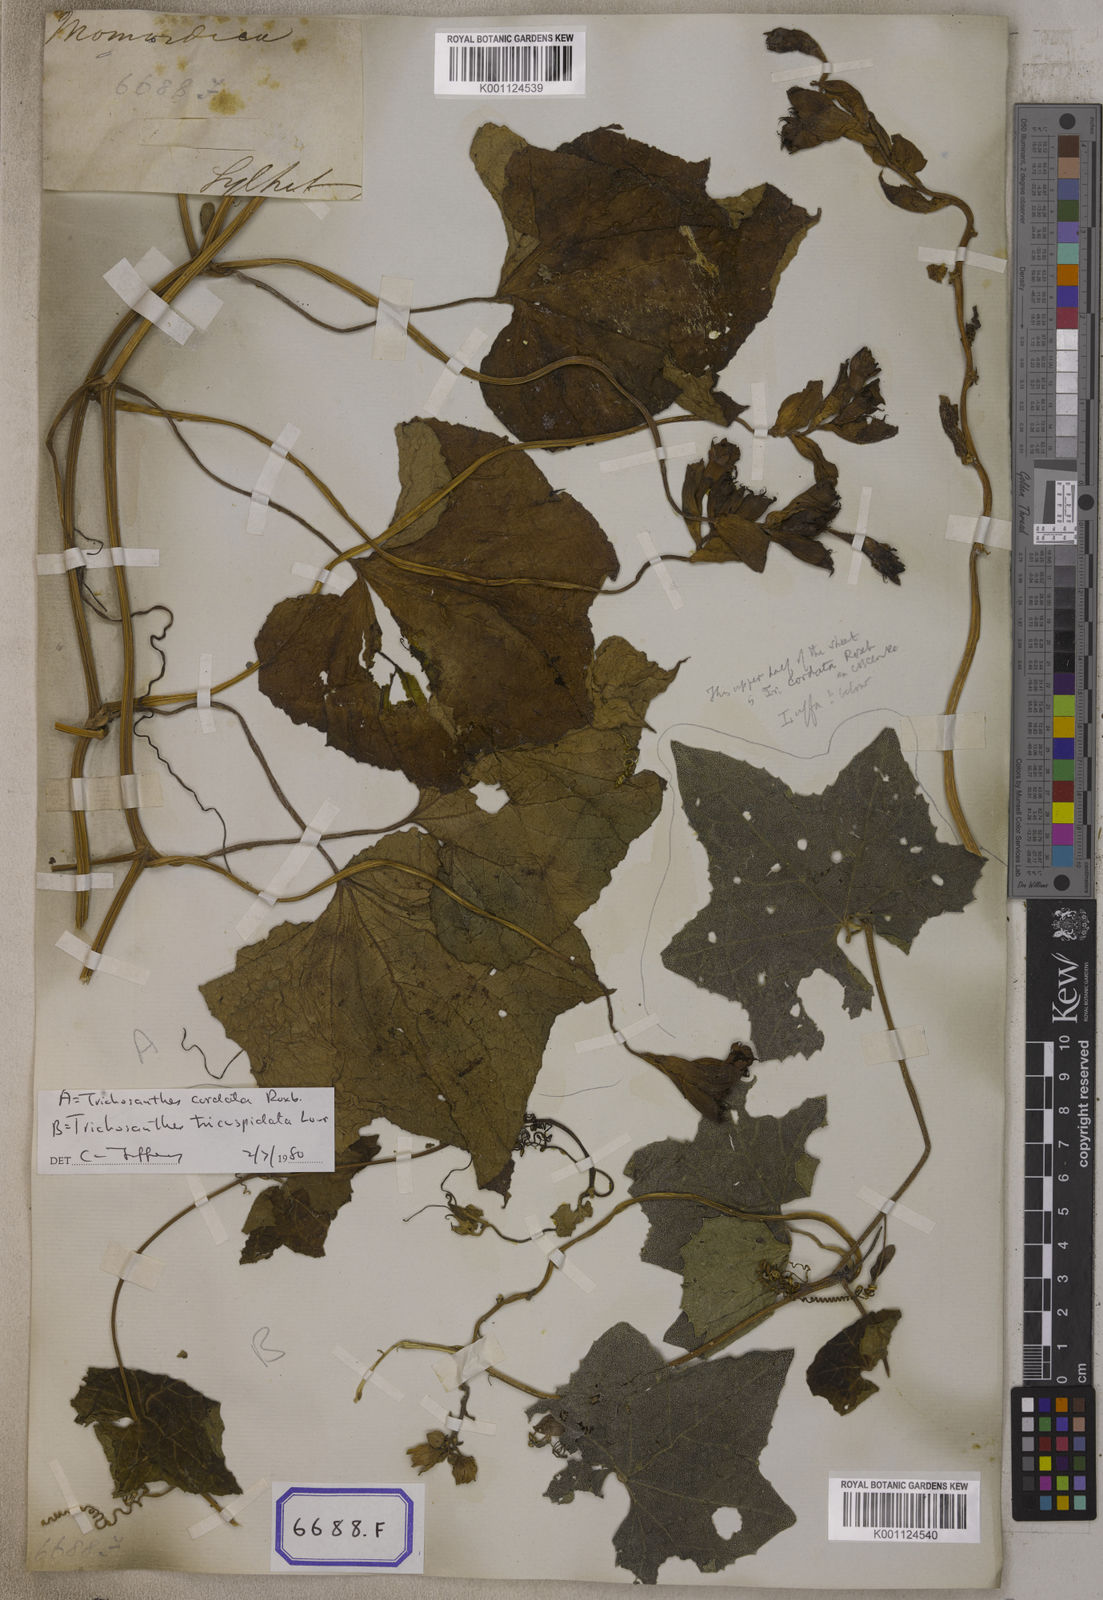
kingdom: Plantae
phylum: Tracheophyta
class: Magnoliopsida
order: Cucurbitales
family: Cucurbitaceae
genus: Trichosanthes
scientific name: Trichosanthes
